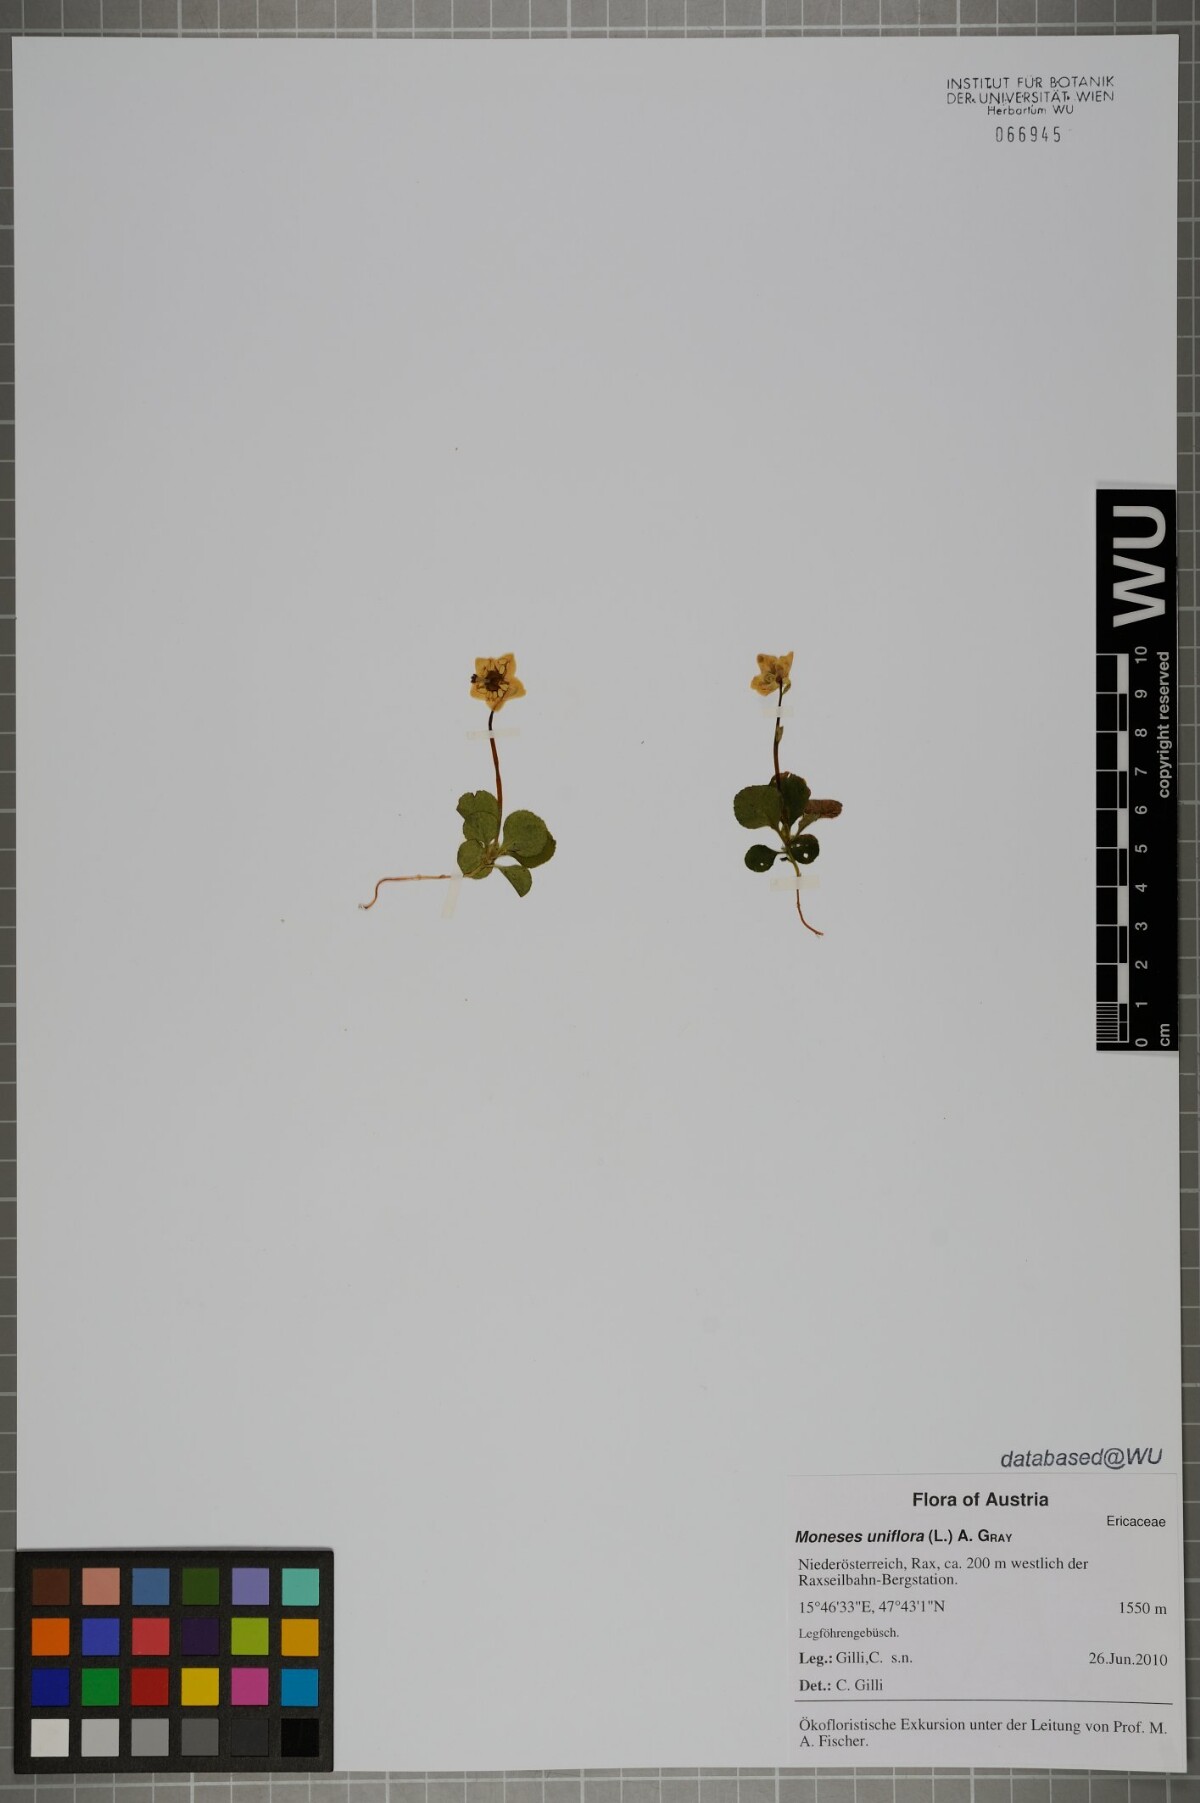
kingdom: Plantae
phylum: Tracheophyta
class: Magnoliopsida
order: Ericales
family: Ericaceae
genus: Moneses
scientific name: Moneses uniflora
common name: One-flowered wintergreen
